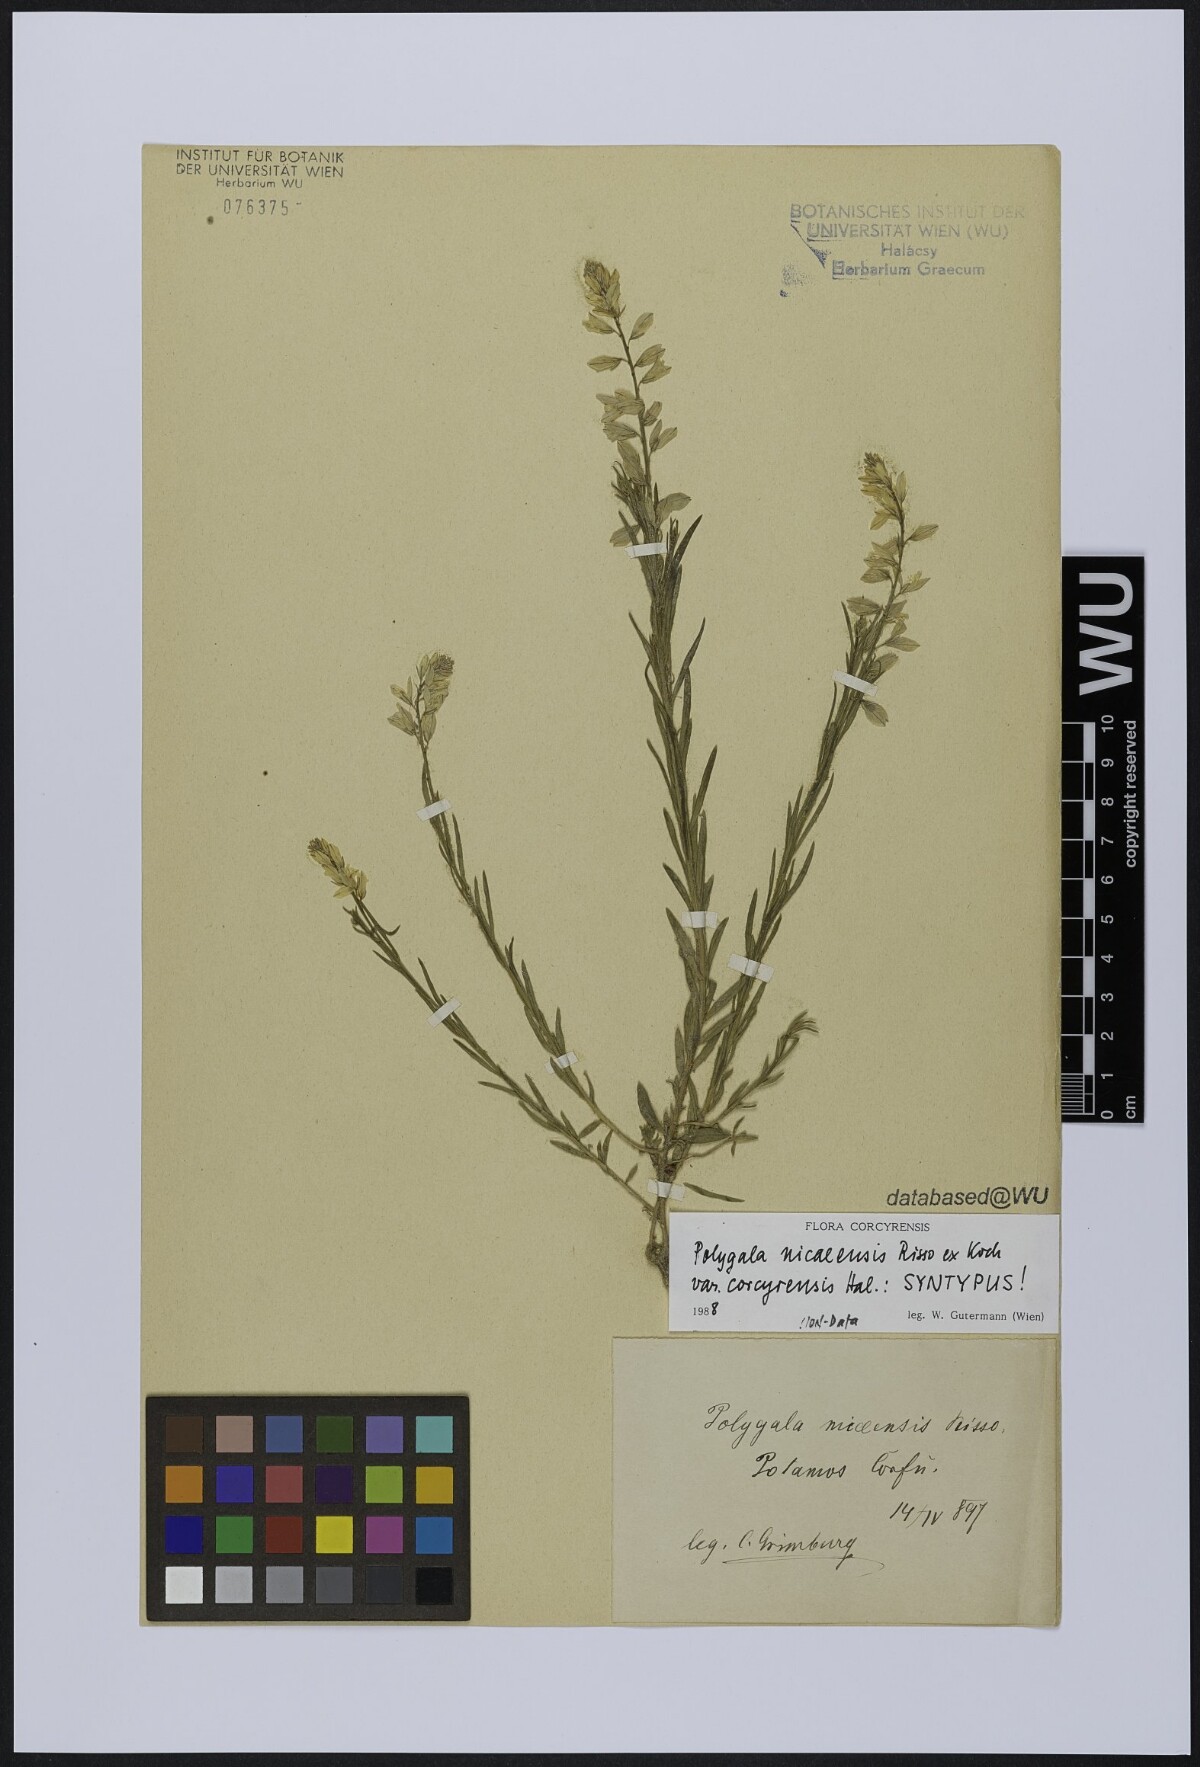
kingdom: Plantae
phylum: Tracheophyta
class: Magnoliopsida
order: Fabales
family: Polygalaceae
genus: Polygala
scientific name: Polygala nicaeensis
